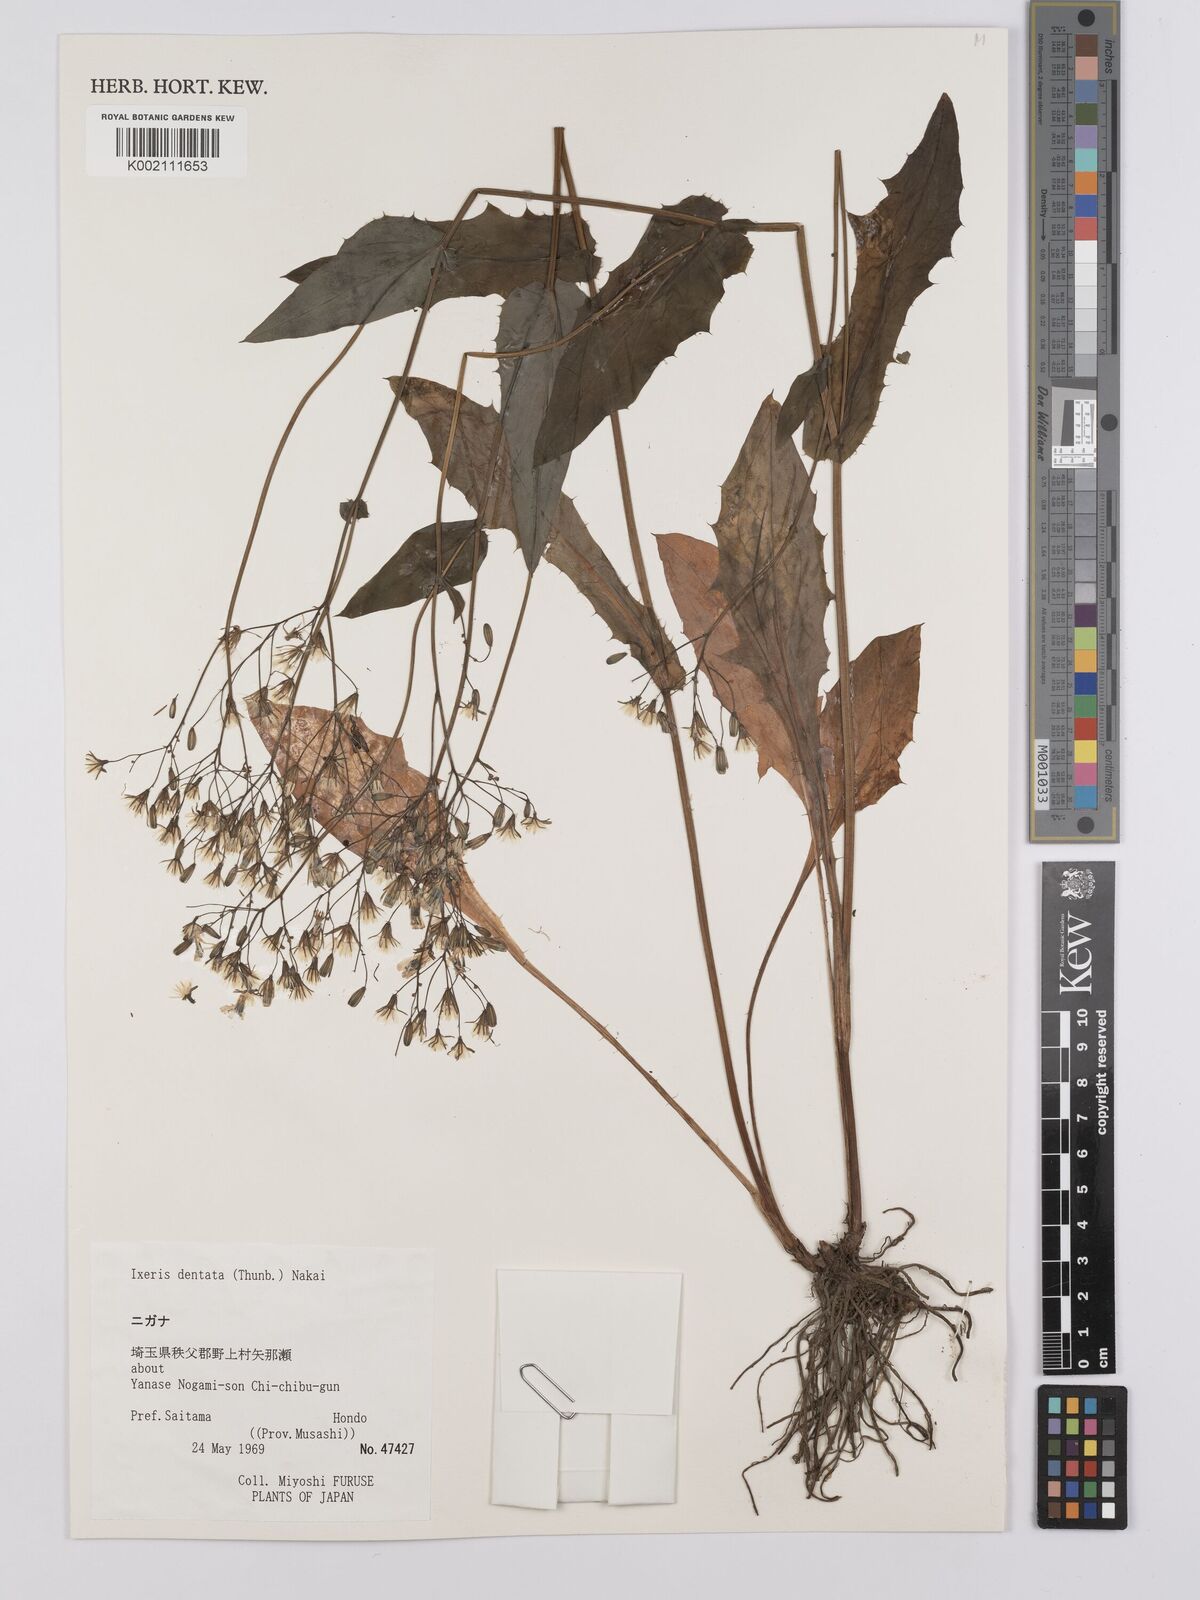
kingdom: Plantae
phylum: Tracheophyta
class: Magnoliopsida
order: Asterales
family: Asteraceae
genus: Ixeridium
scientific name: Ixeridium dentatum
